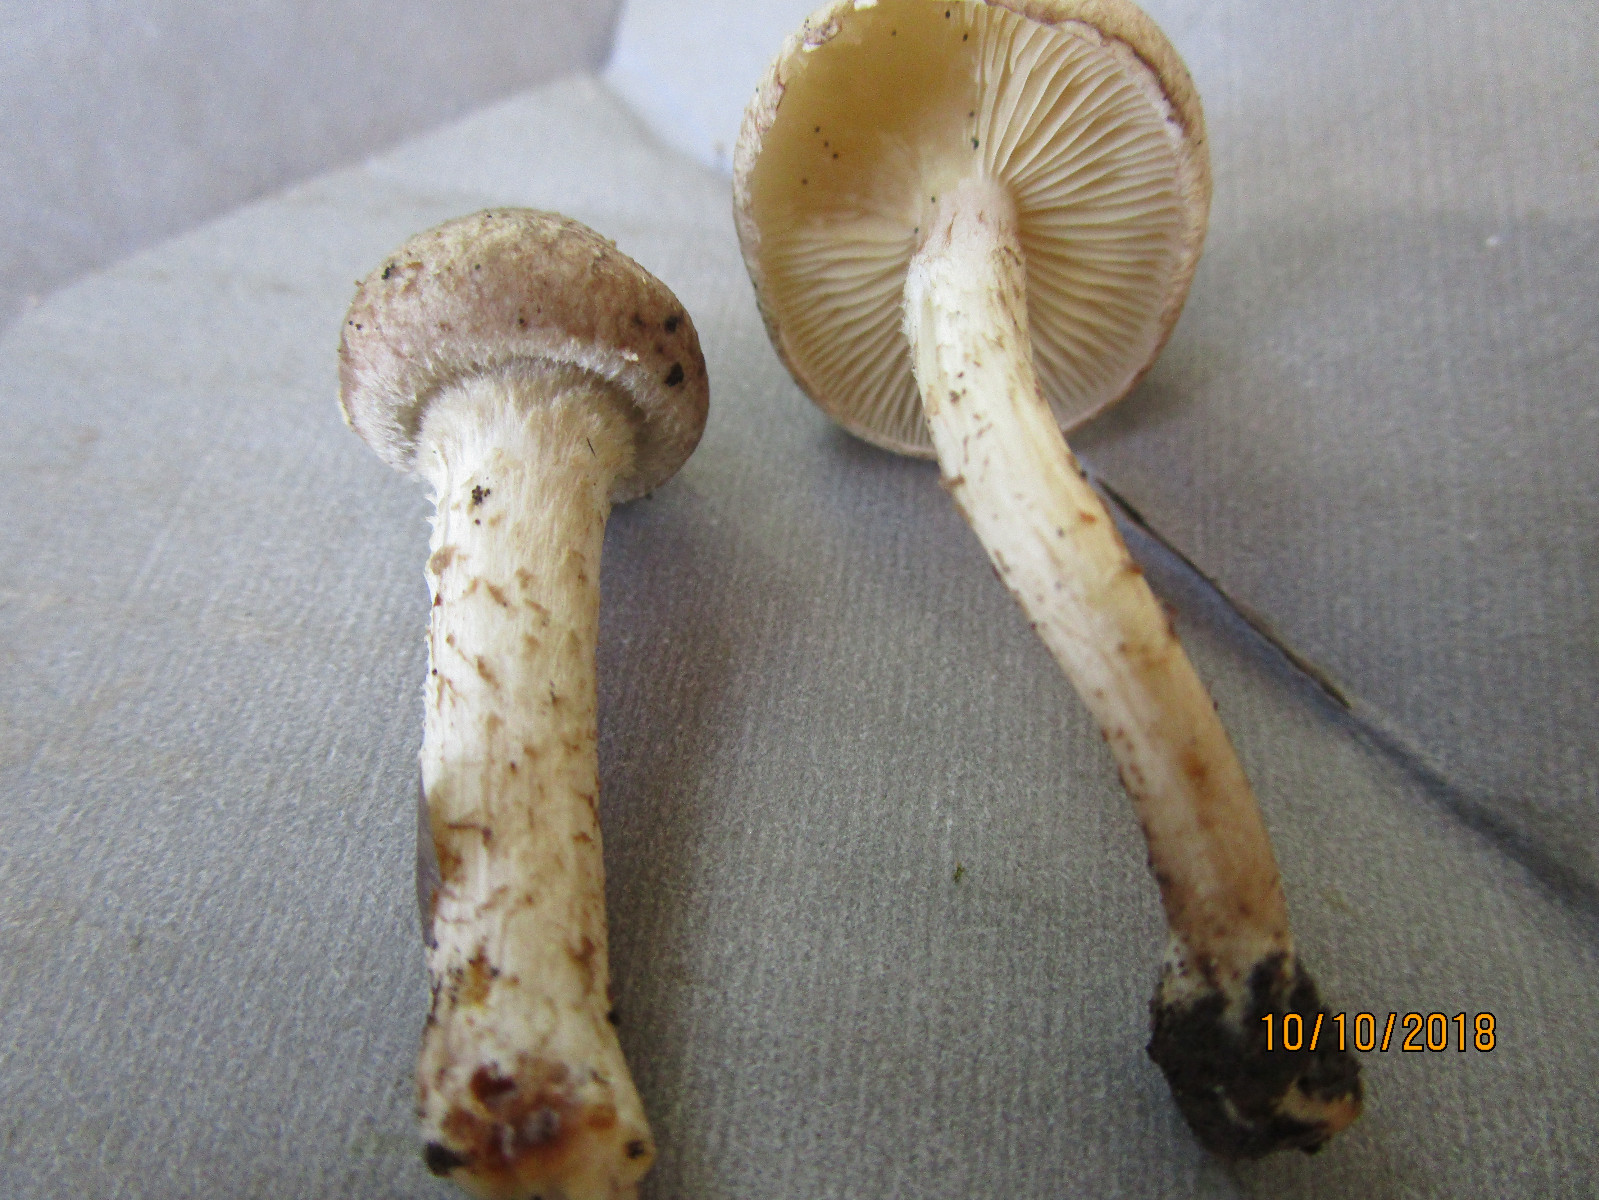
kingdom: Fungi
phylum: Basidiomycota
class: Agaricomycetes
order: Agaricales
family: Strophariaceae
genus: Pholiota
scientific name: Pholiota gummosa
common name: grøngul skælhat
